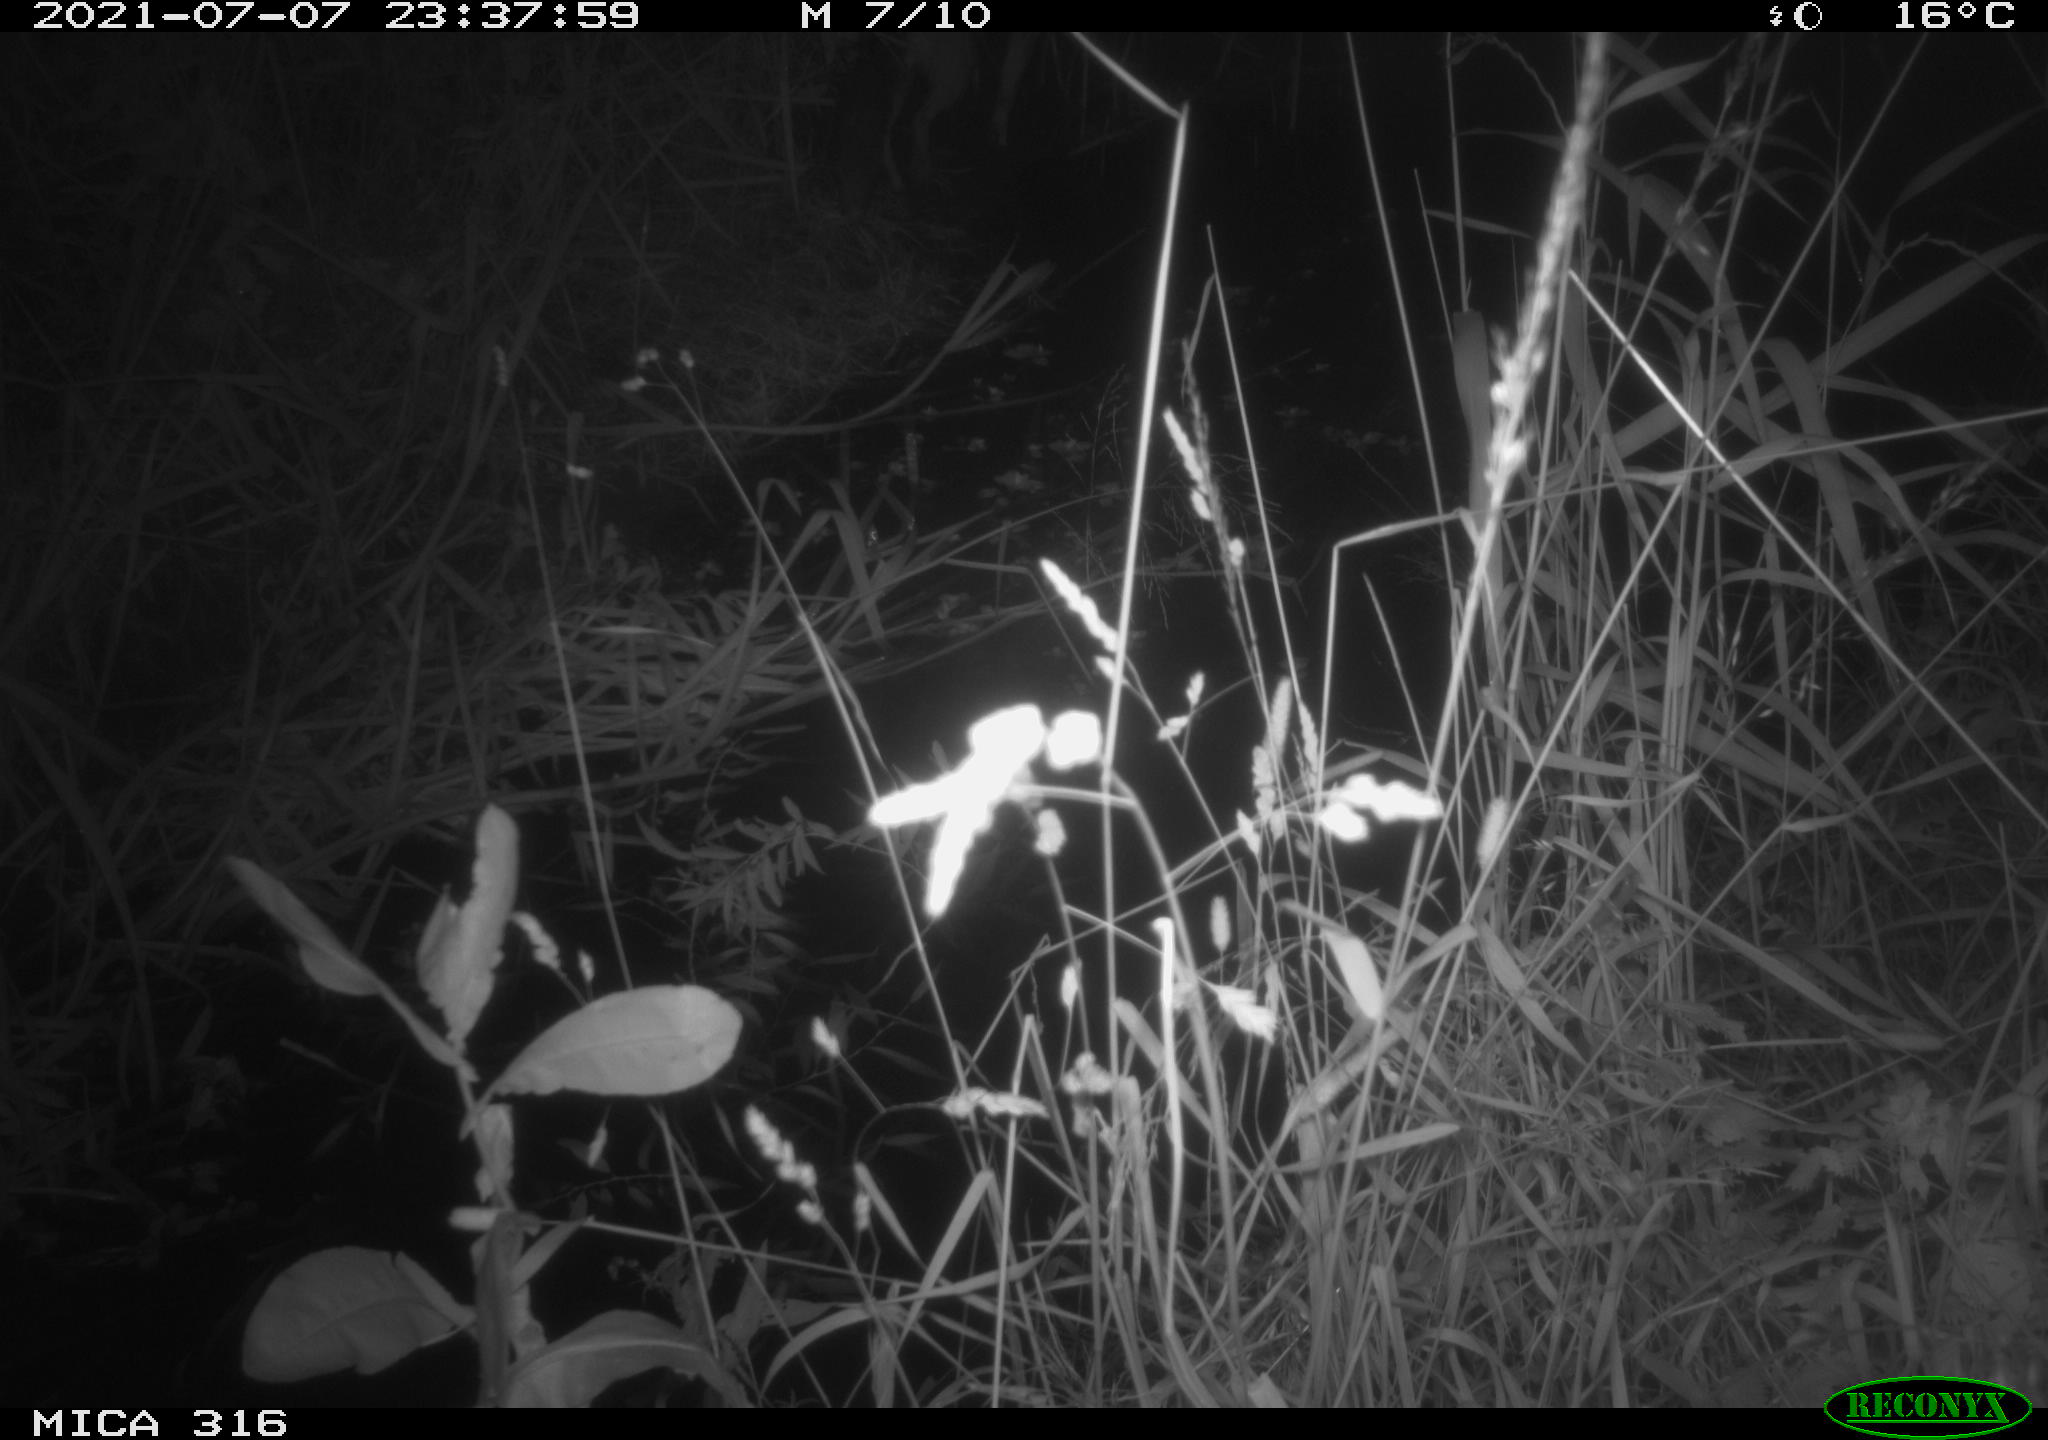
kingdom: Animalia
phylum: Chordata
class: Mammalia
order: Carnivora
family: Canidae
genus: Vulpes
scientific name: Vulpes vulpes
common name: Red fox
